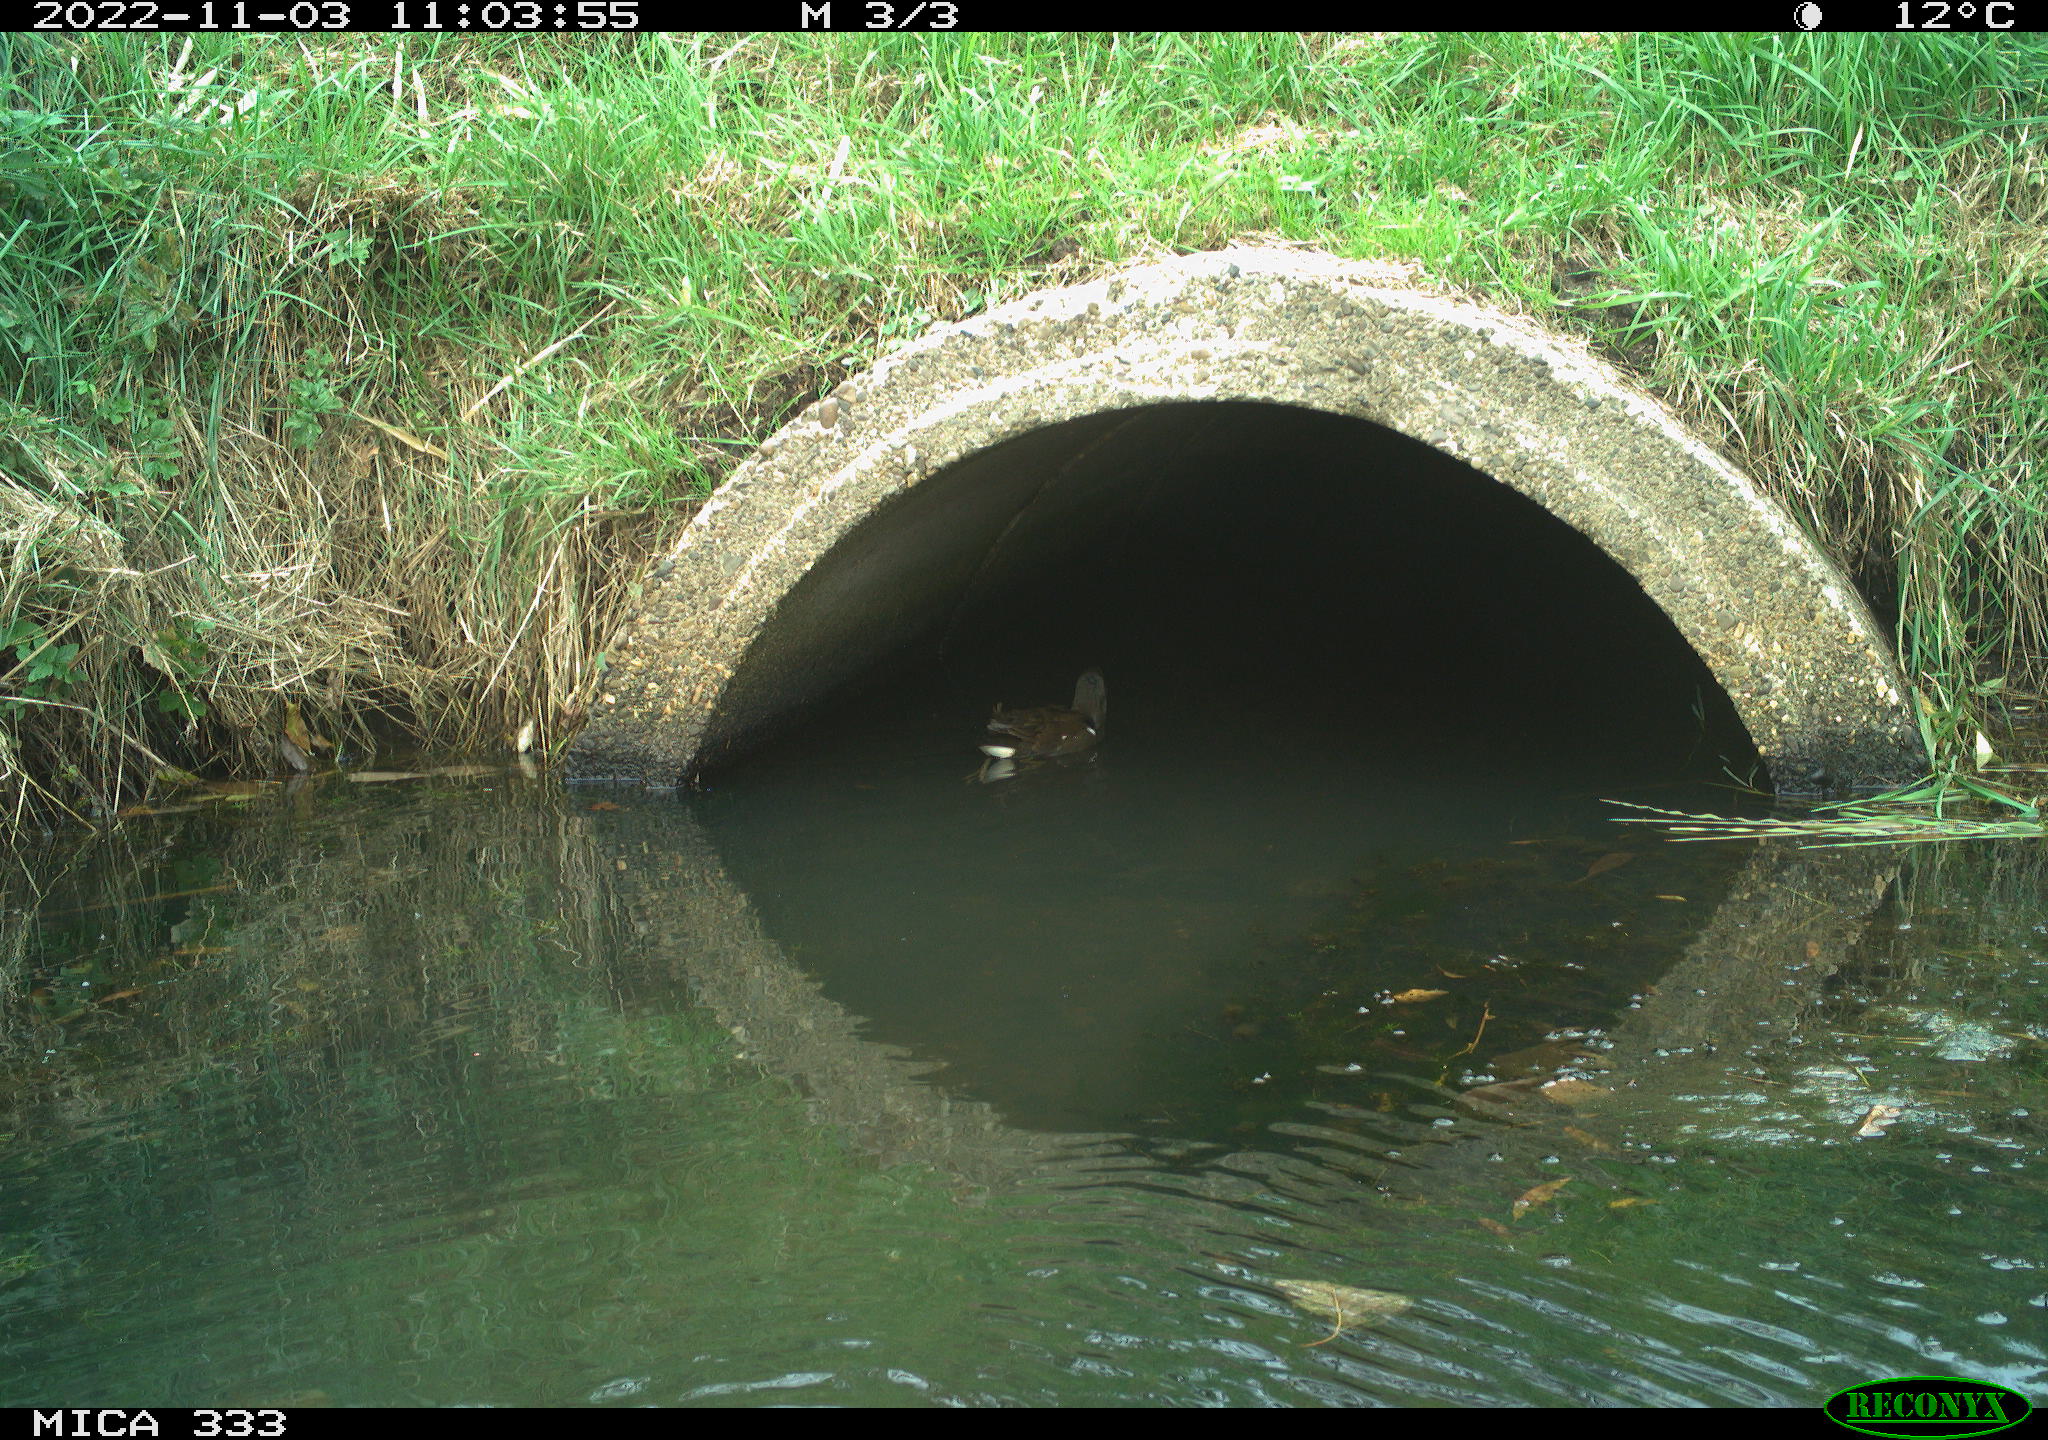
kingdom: Animalia
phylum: Chordata
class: Aves
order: Gruiformes
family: Rallidae
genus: Gallinula
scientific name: Gallinula chloropus
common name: Common moorhen
